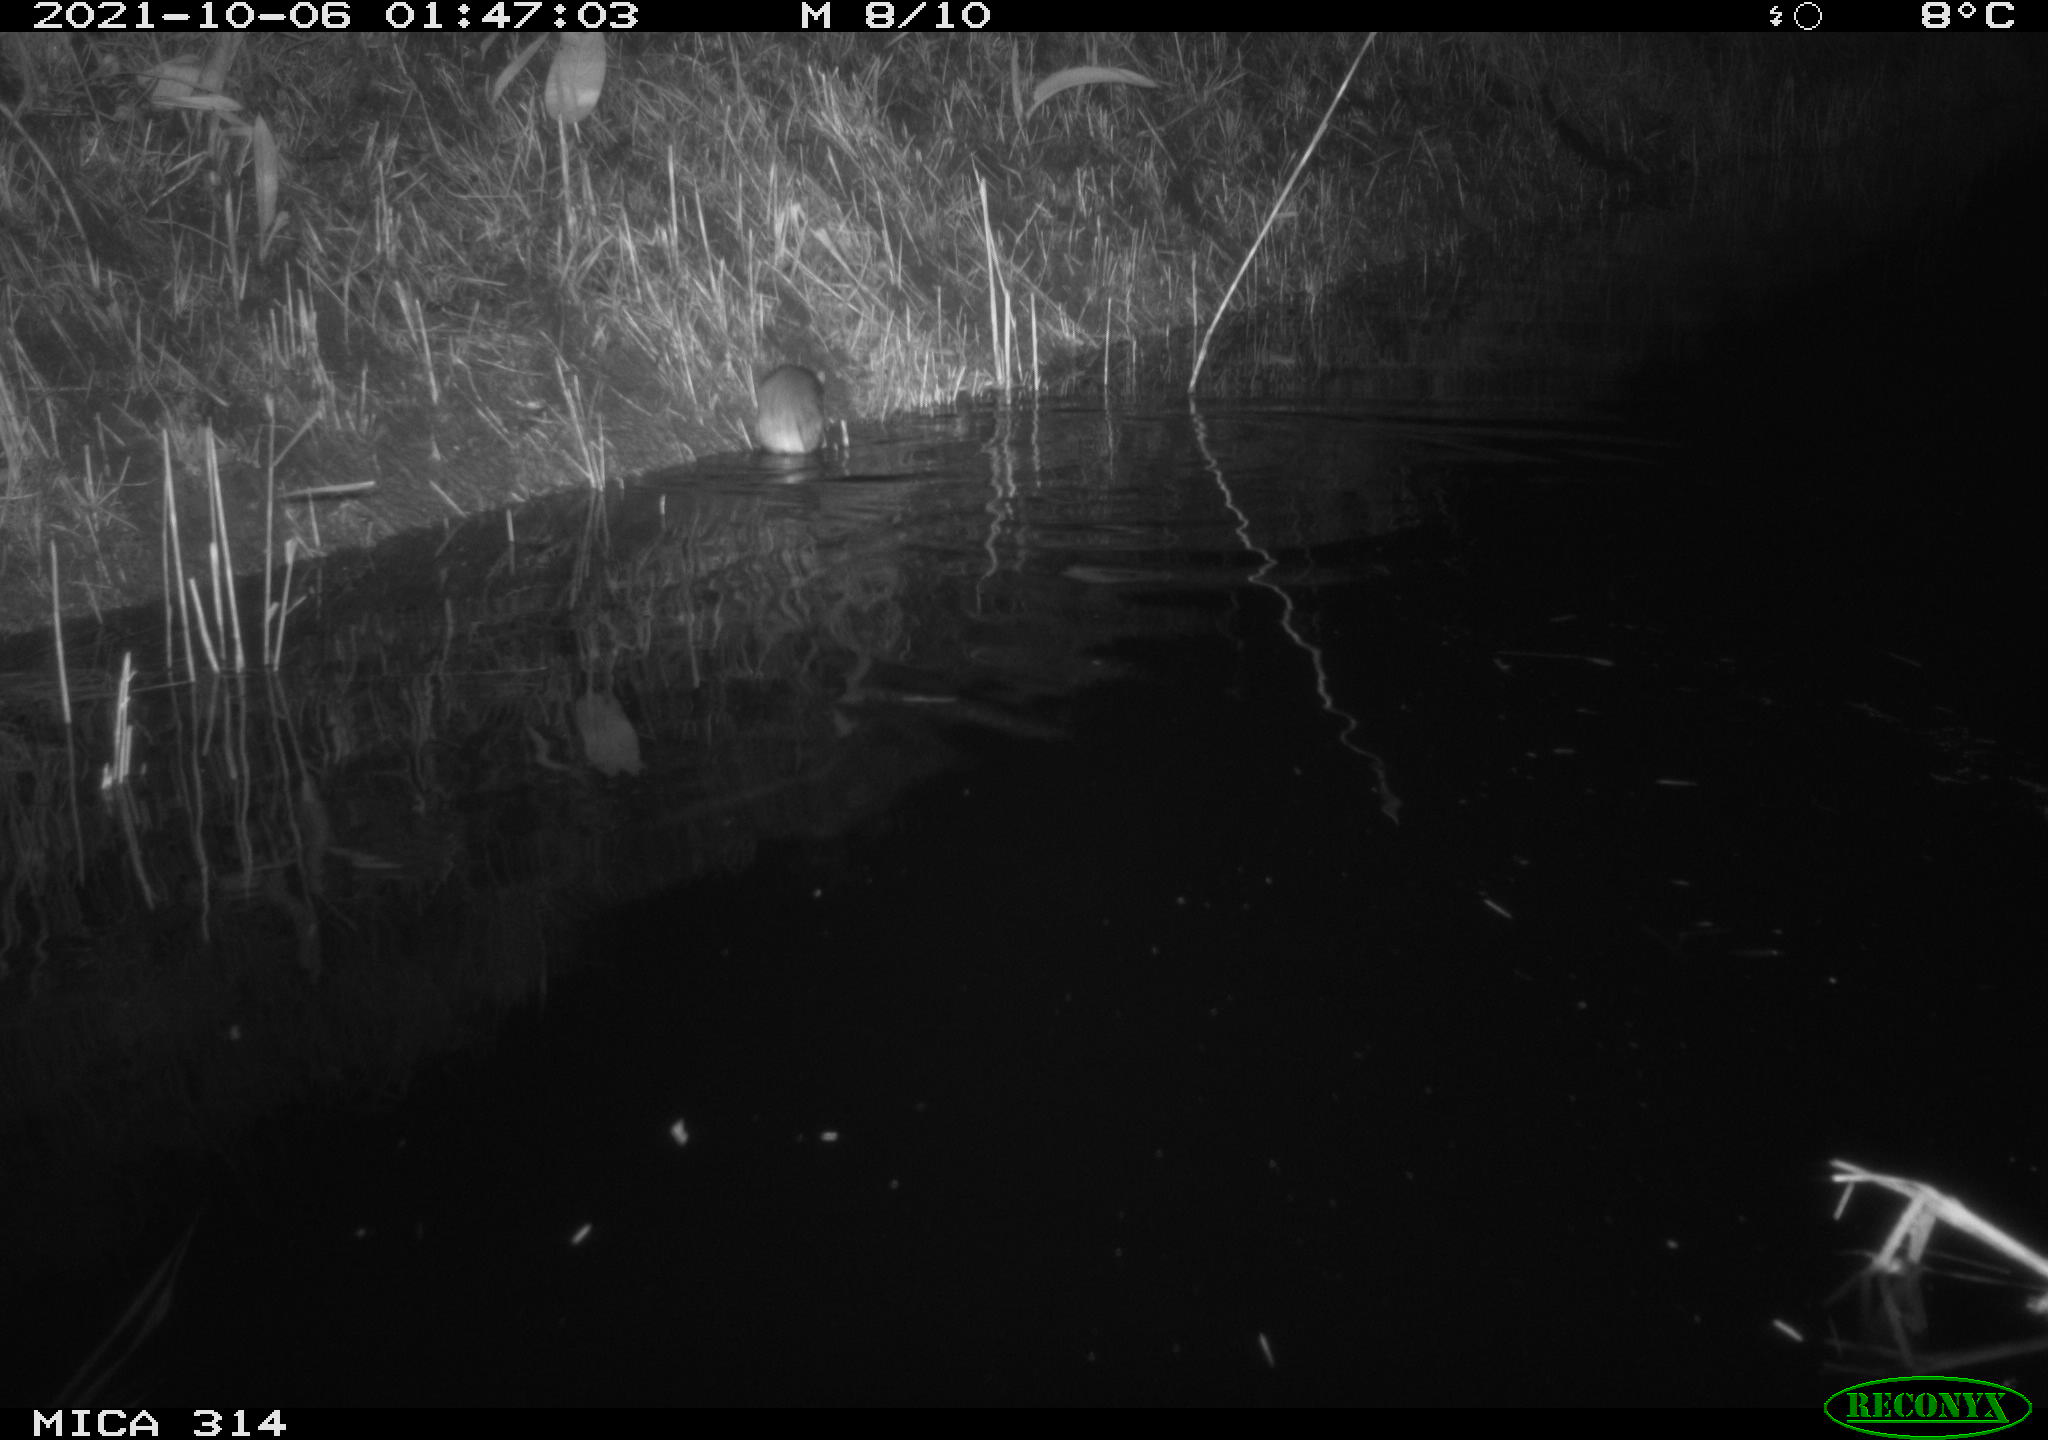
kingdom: Animalia
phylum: Chordata
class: Mammalia
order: Rodentia
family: Muridae
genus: Rattus
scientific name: Rattus norvegicus
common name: Brown rat
